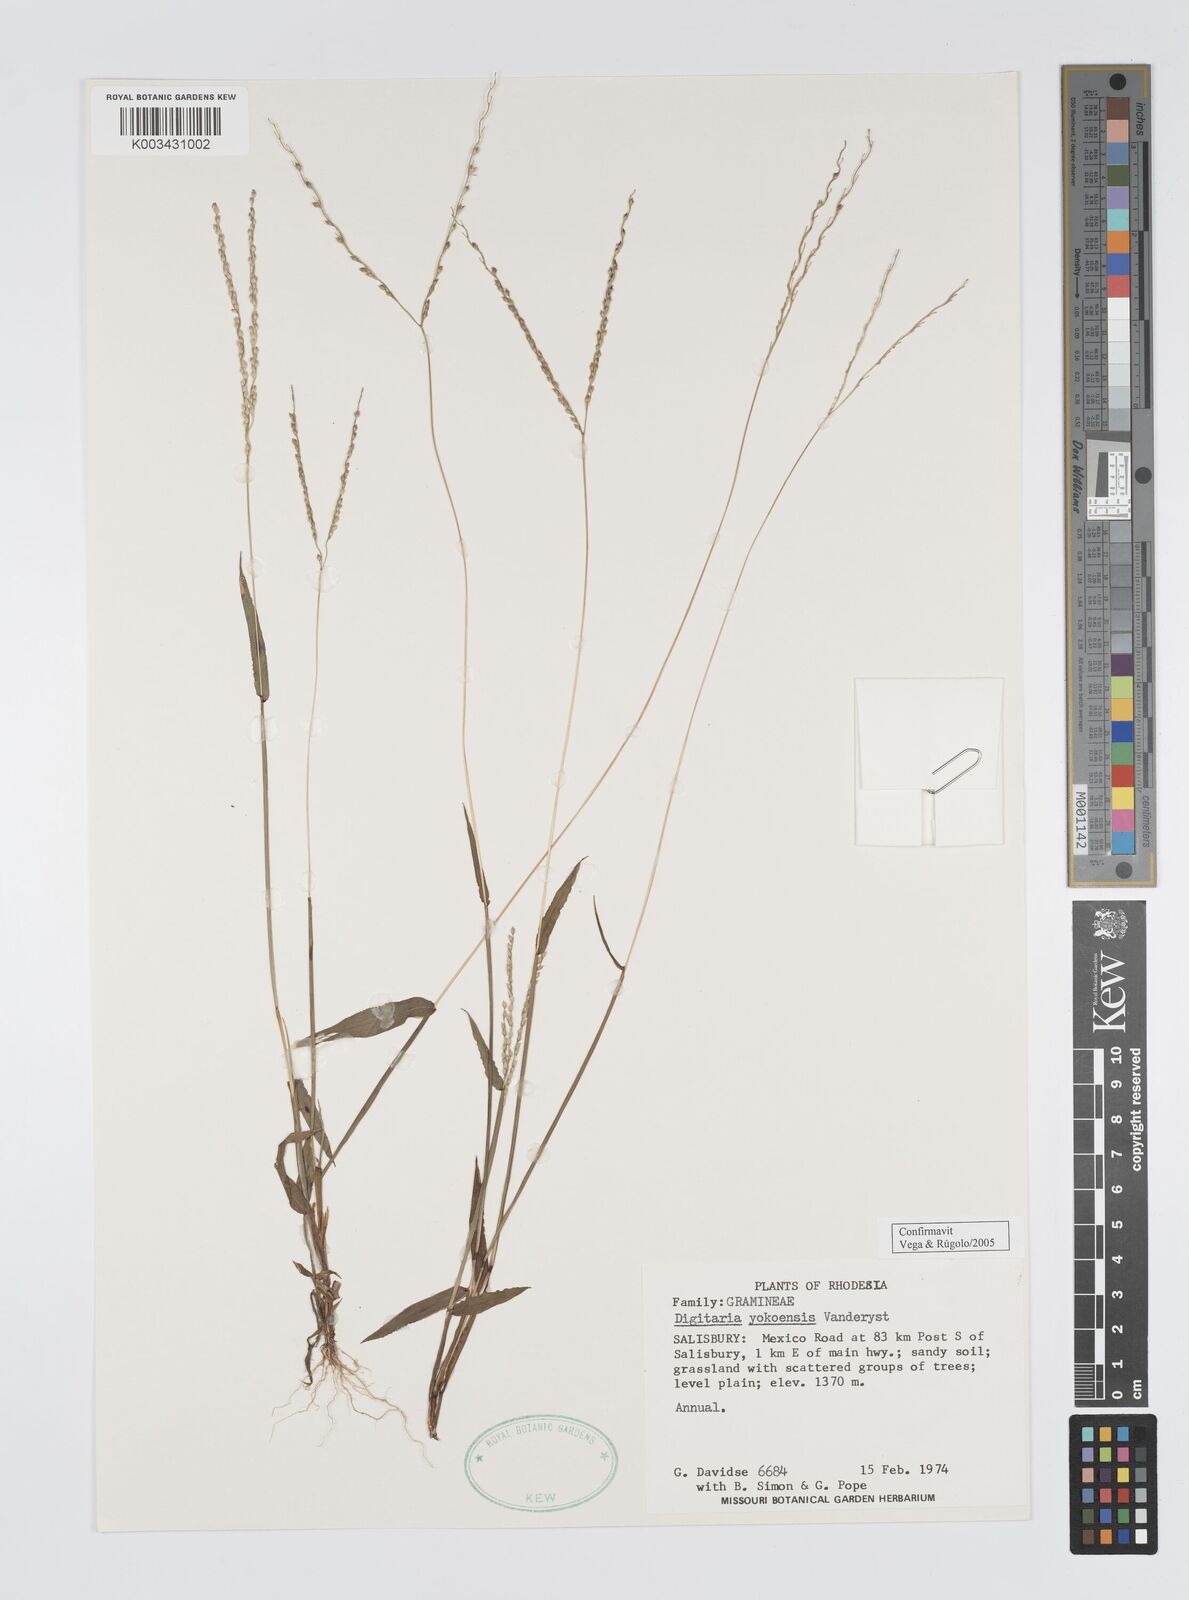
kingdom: Plantae
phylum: Tracheophyta
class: Liliopsida
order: Poales
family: Poaceae
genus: Digitaria
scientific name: Digitaria angolensis
